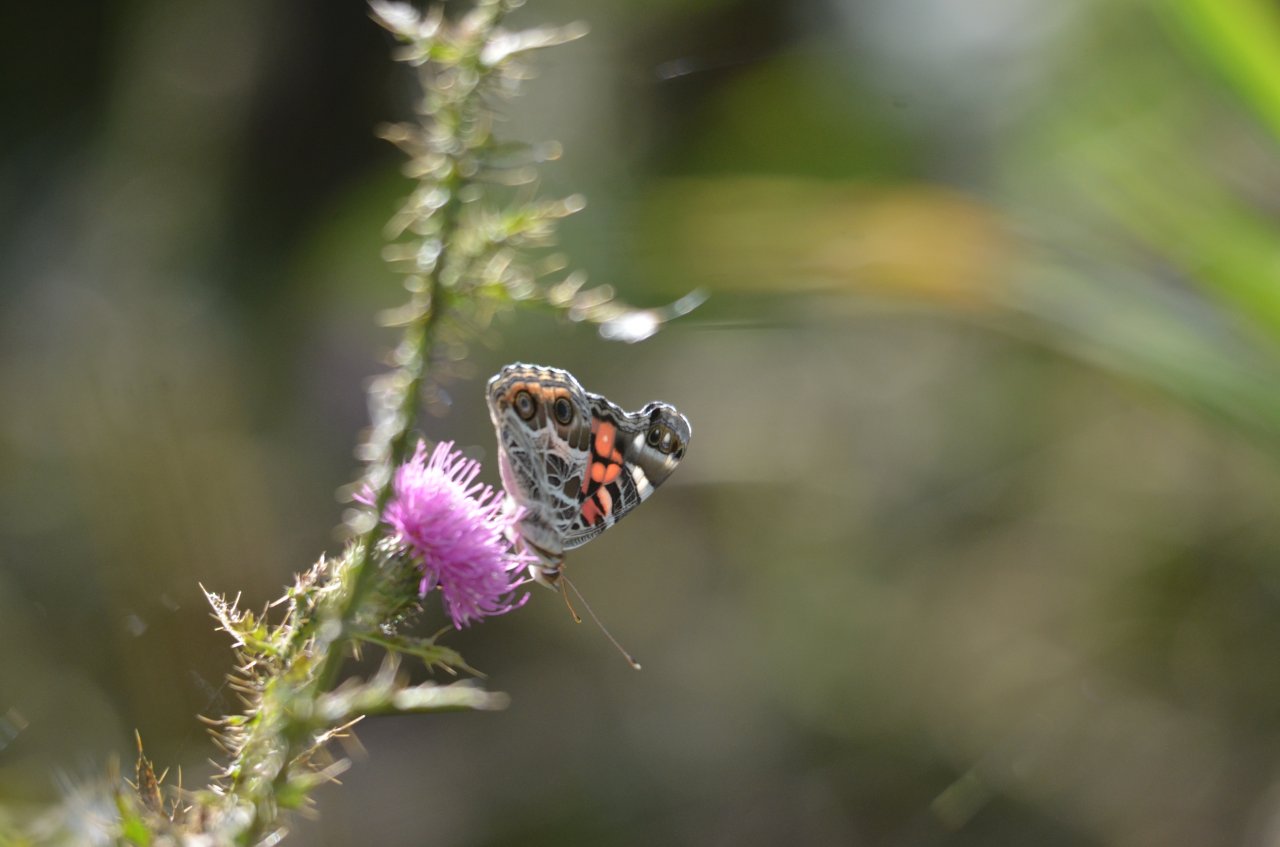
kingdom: Animalia
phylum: Arthropoda
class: Insecta
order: Lepidoptera
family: Nymphalidae
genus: Vanessa
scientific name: Vanessa virginiensis
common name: American Lady
